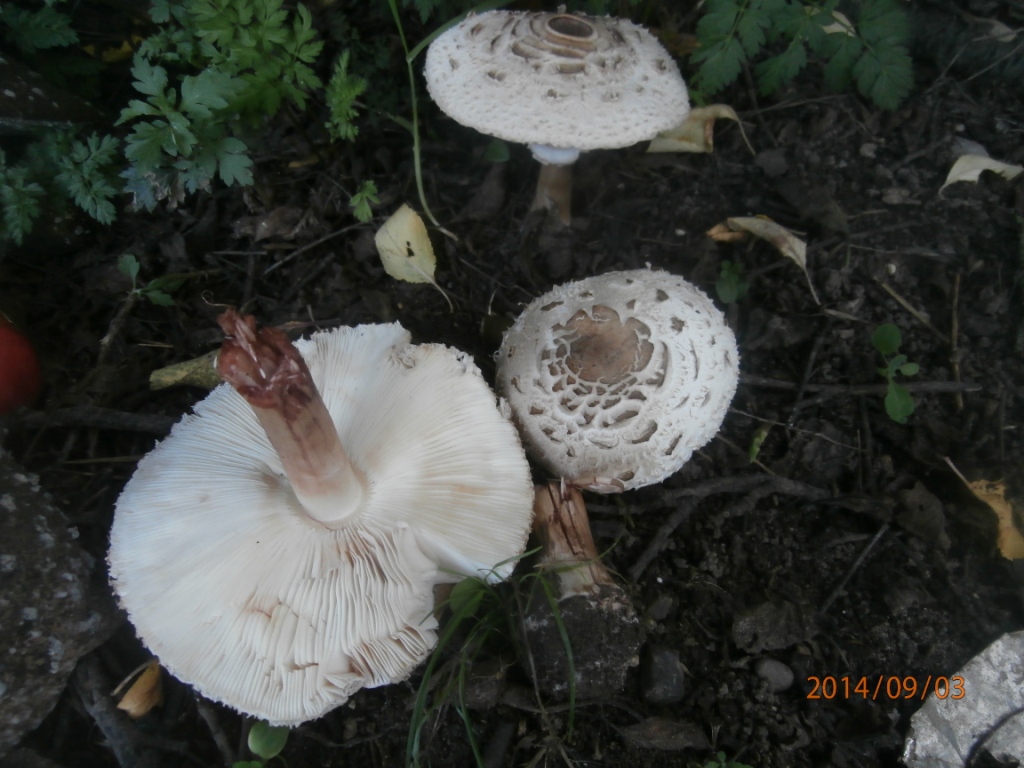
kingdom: Fungi
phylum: Basidiomycota
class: Agaricomycetes
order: Agaricales
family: Agaricaceae
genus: Chlorophyllum
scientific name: Chlorophyllum brunneum
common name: giftig rabarberhat
